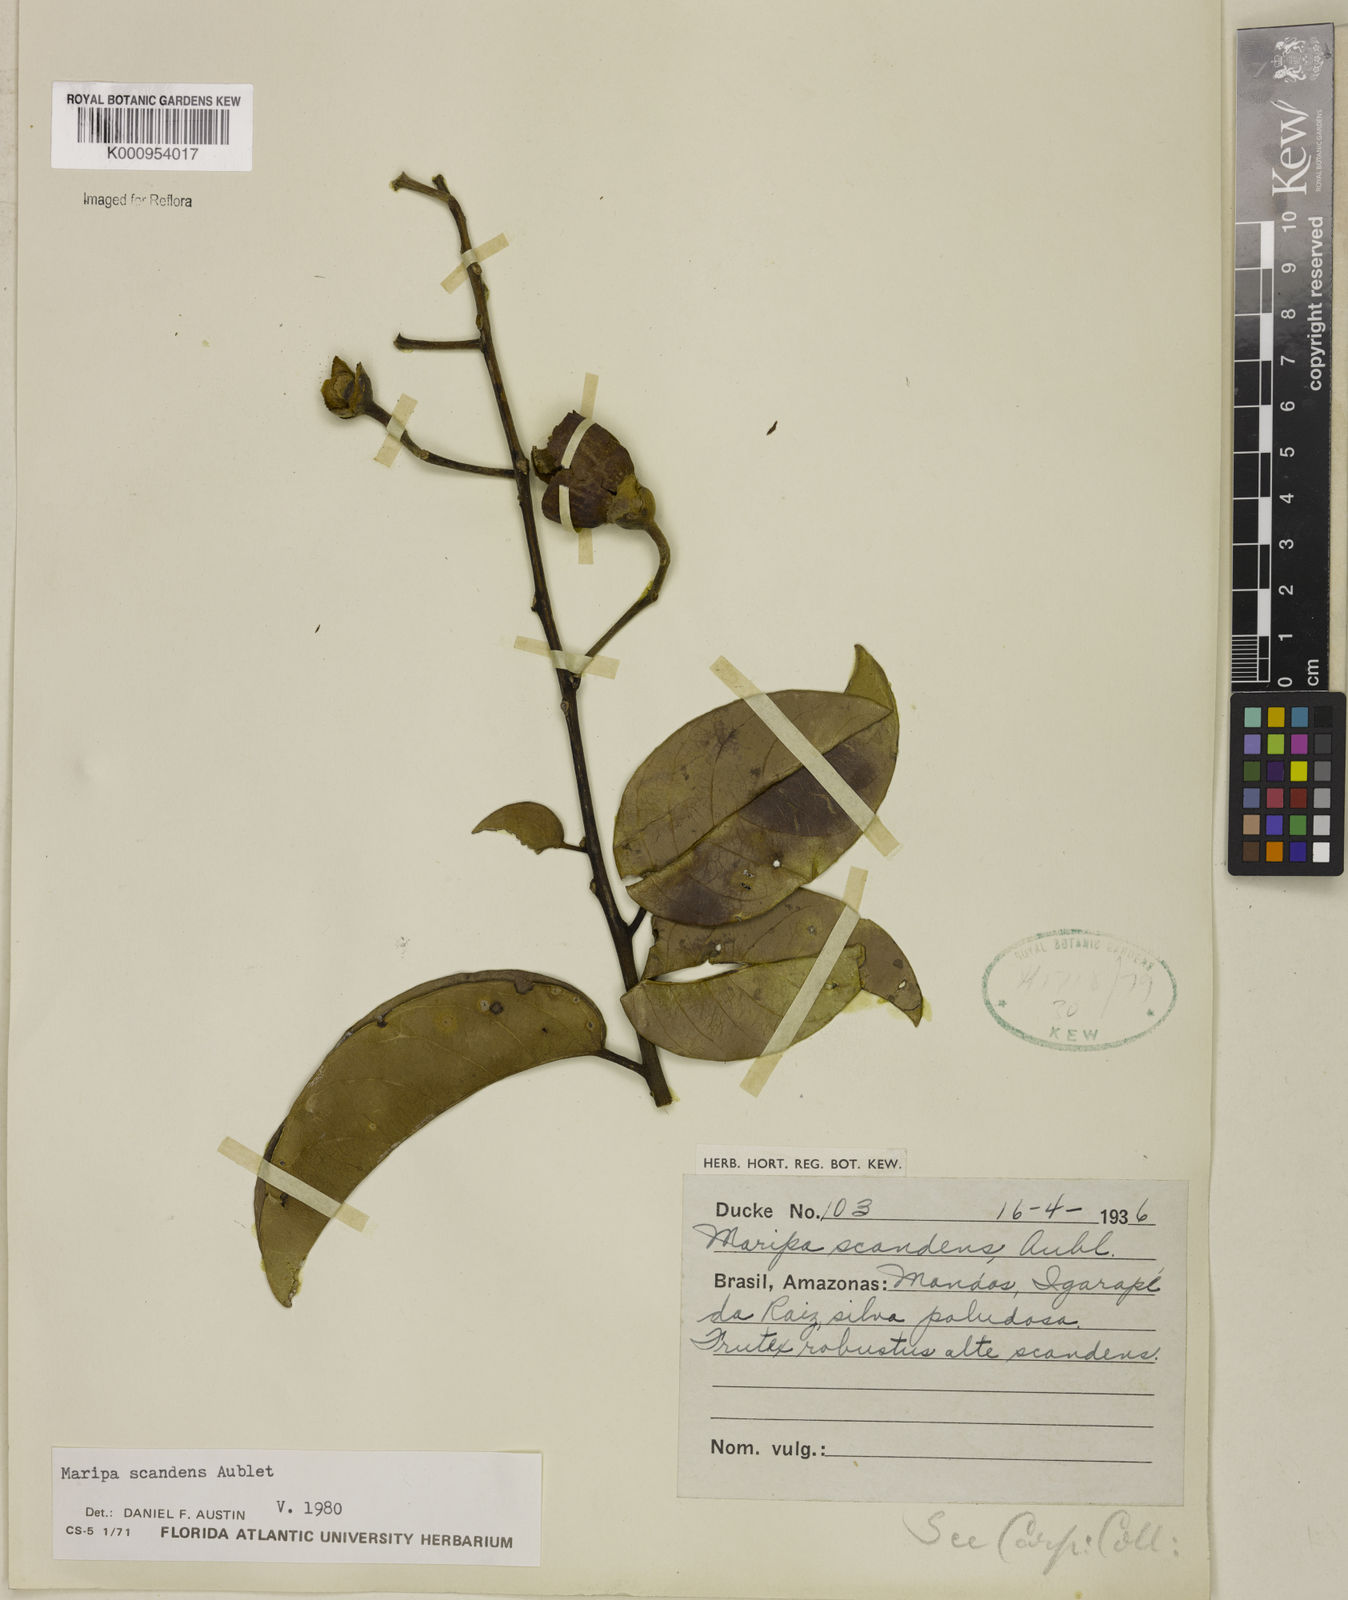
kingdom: Plantae
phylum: Tracheophyta
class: Magnoliopsida
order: Solanales
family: Convolvulaceae
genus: Maripa
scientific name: Maripa scandens
